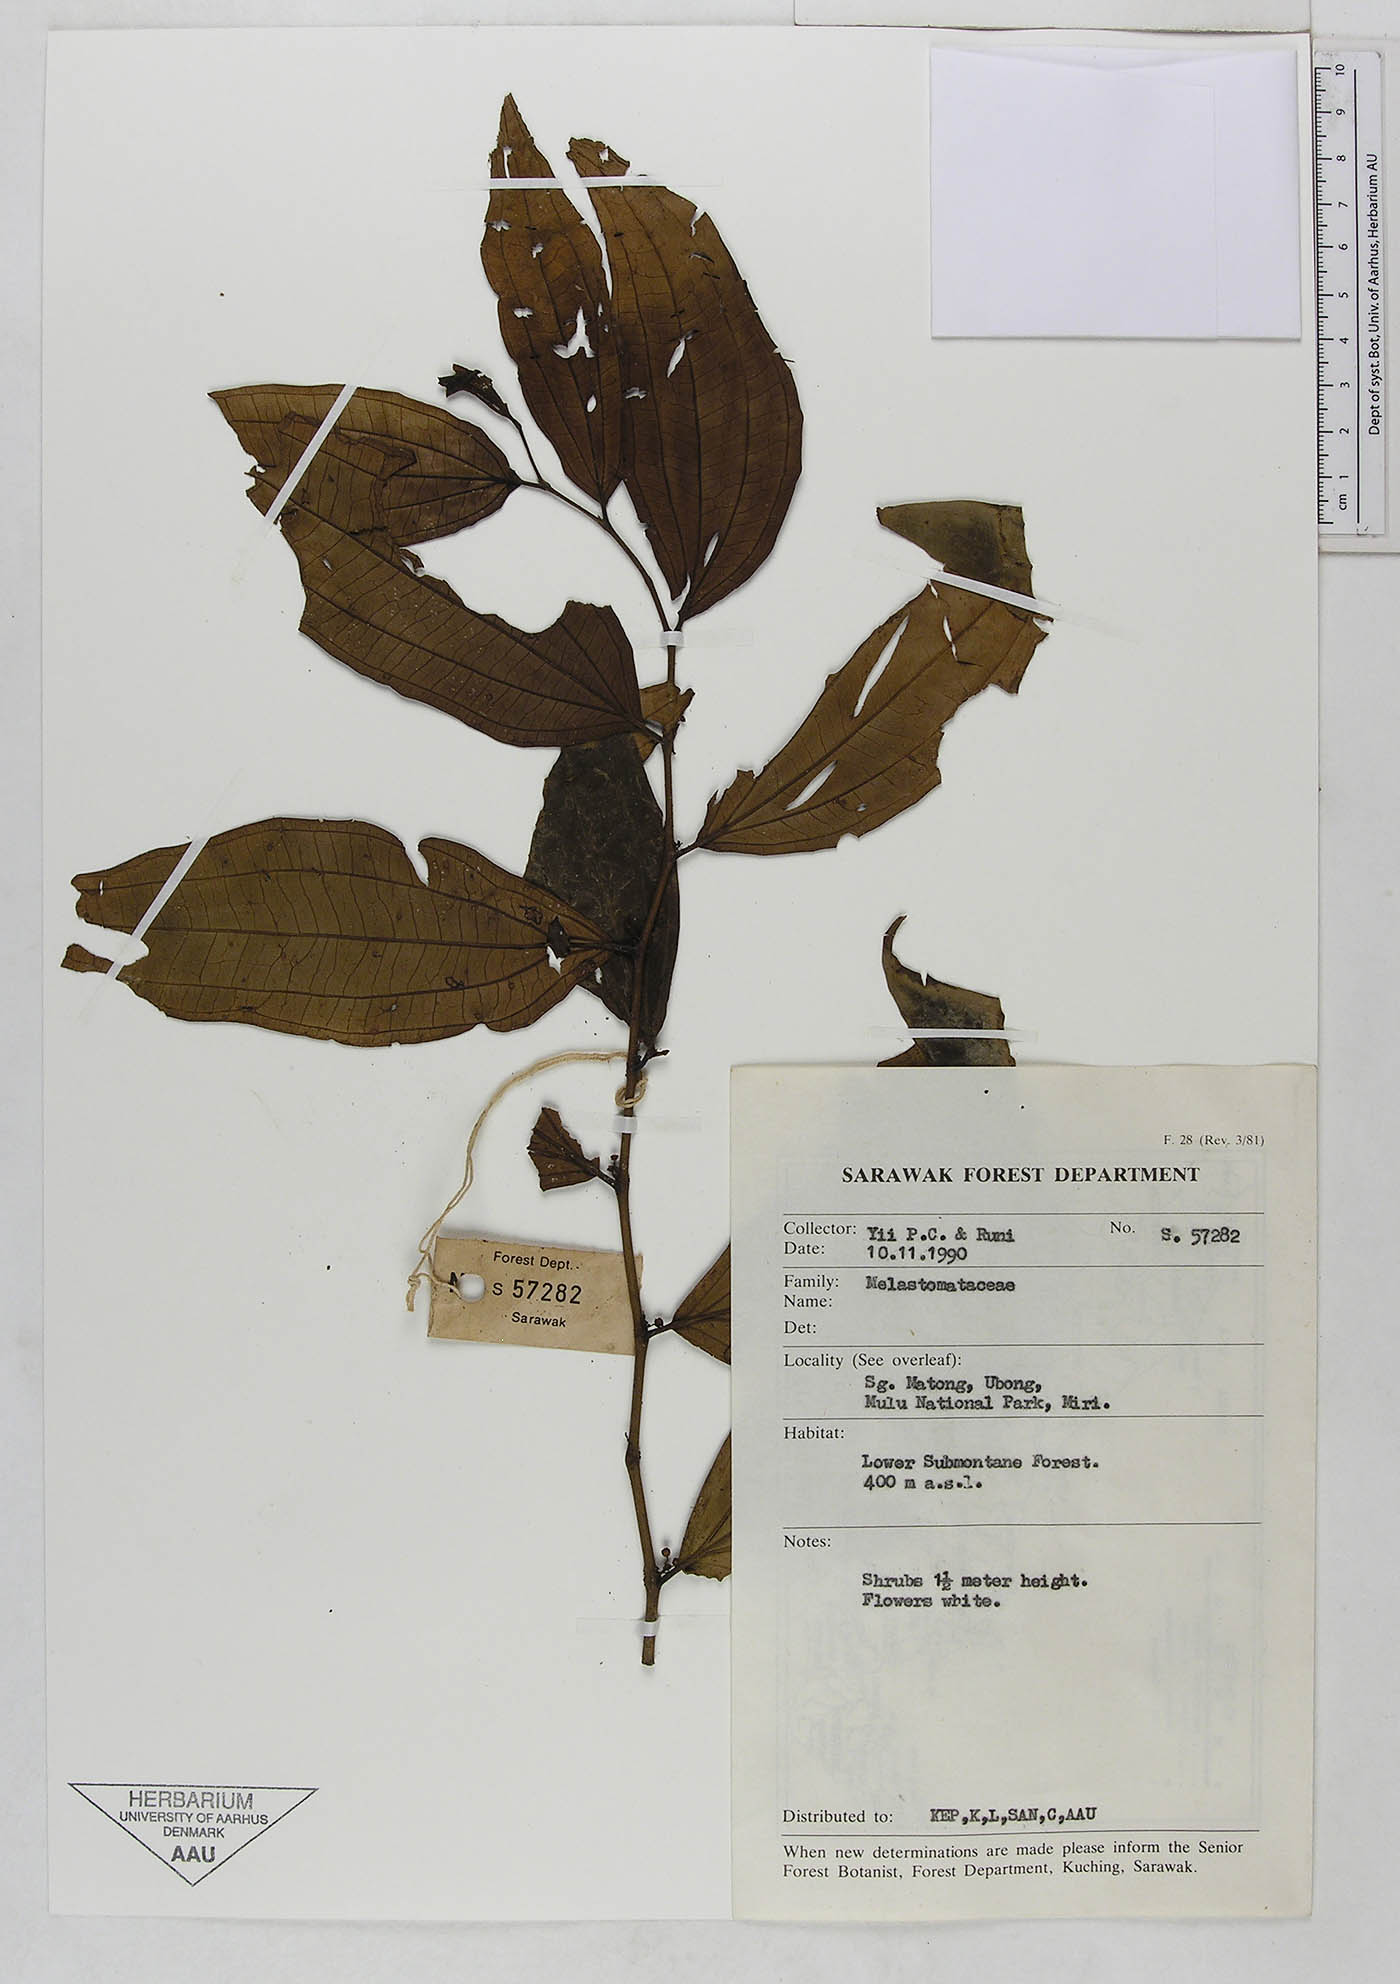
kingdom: Plantae
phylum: Tracheophyta
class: Magnoliopsida
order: Myrtales
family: Melastomataceae
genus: Driessenia
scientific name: Driessenia
